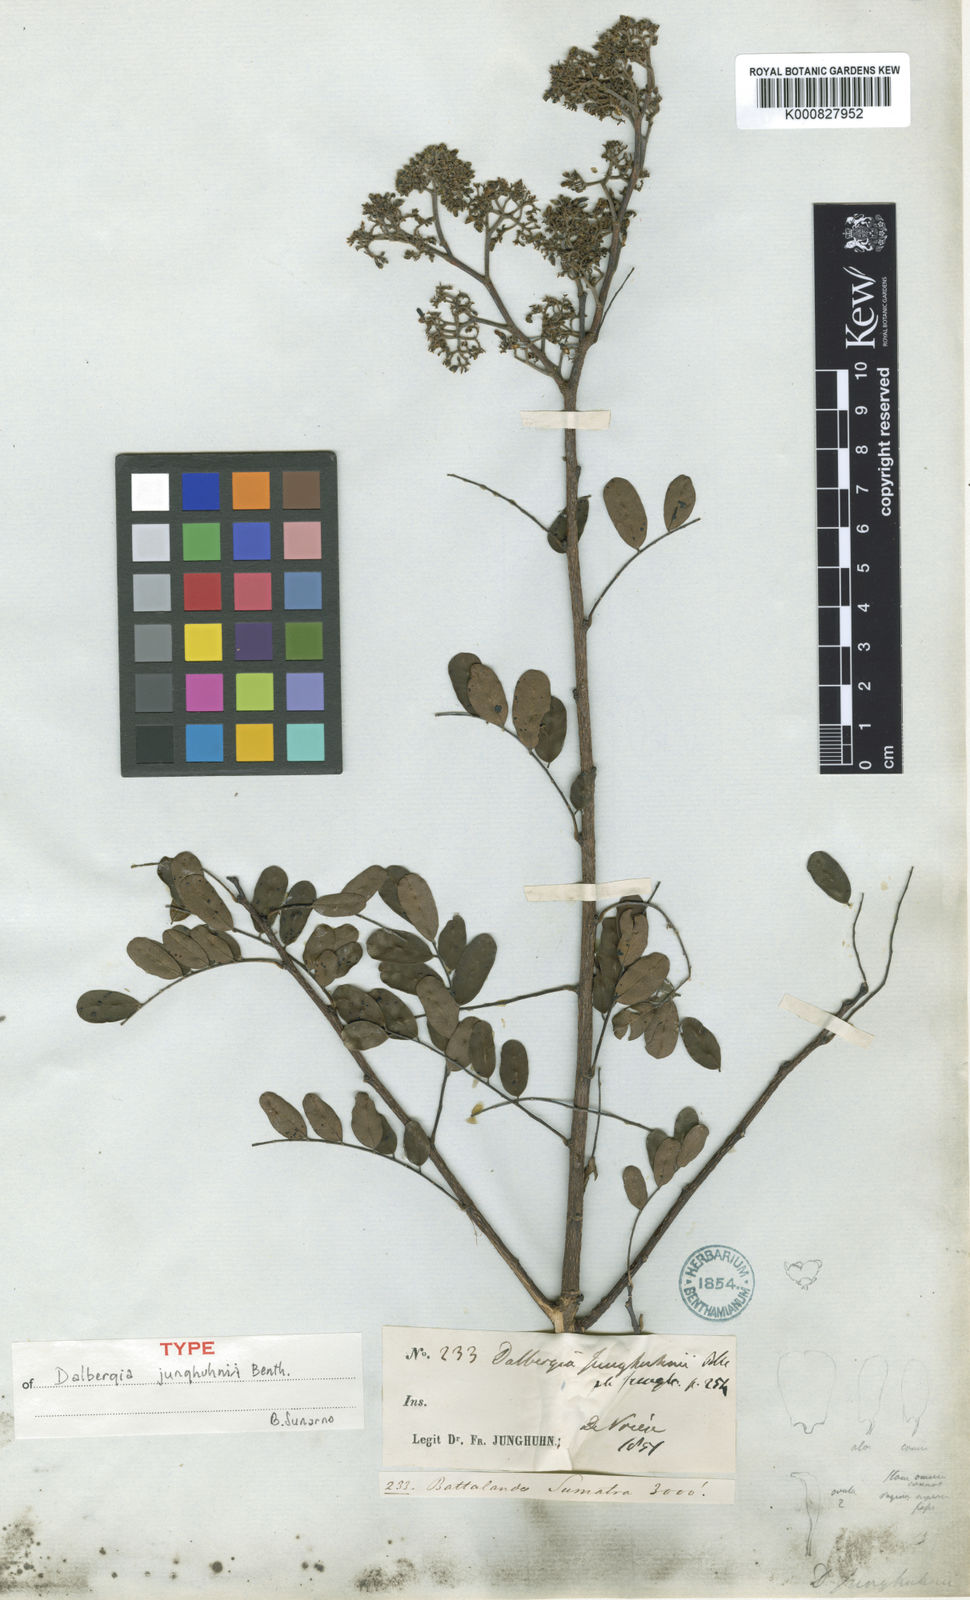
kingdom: Plantae
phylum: Tracheophyta
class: Magnoliopsida
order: Fabales
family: Fabaceae
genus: Dalbergia
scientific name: Dalbergia junghuhnii
